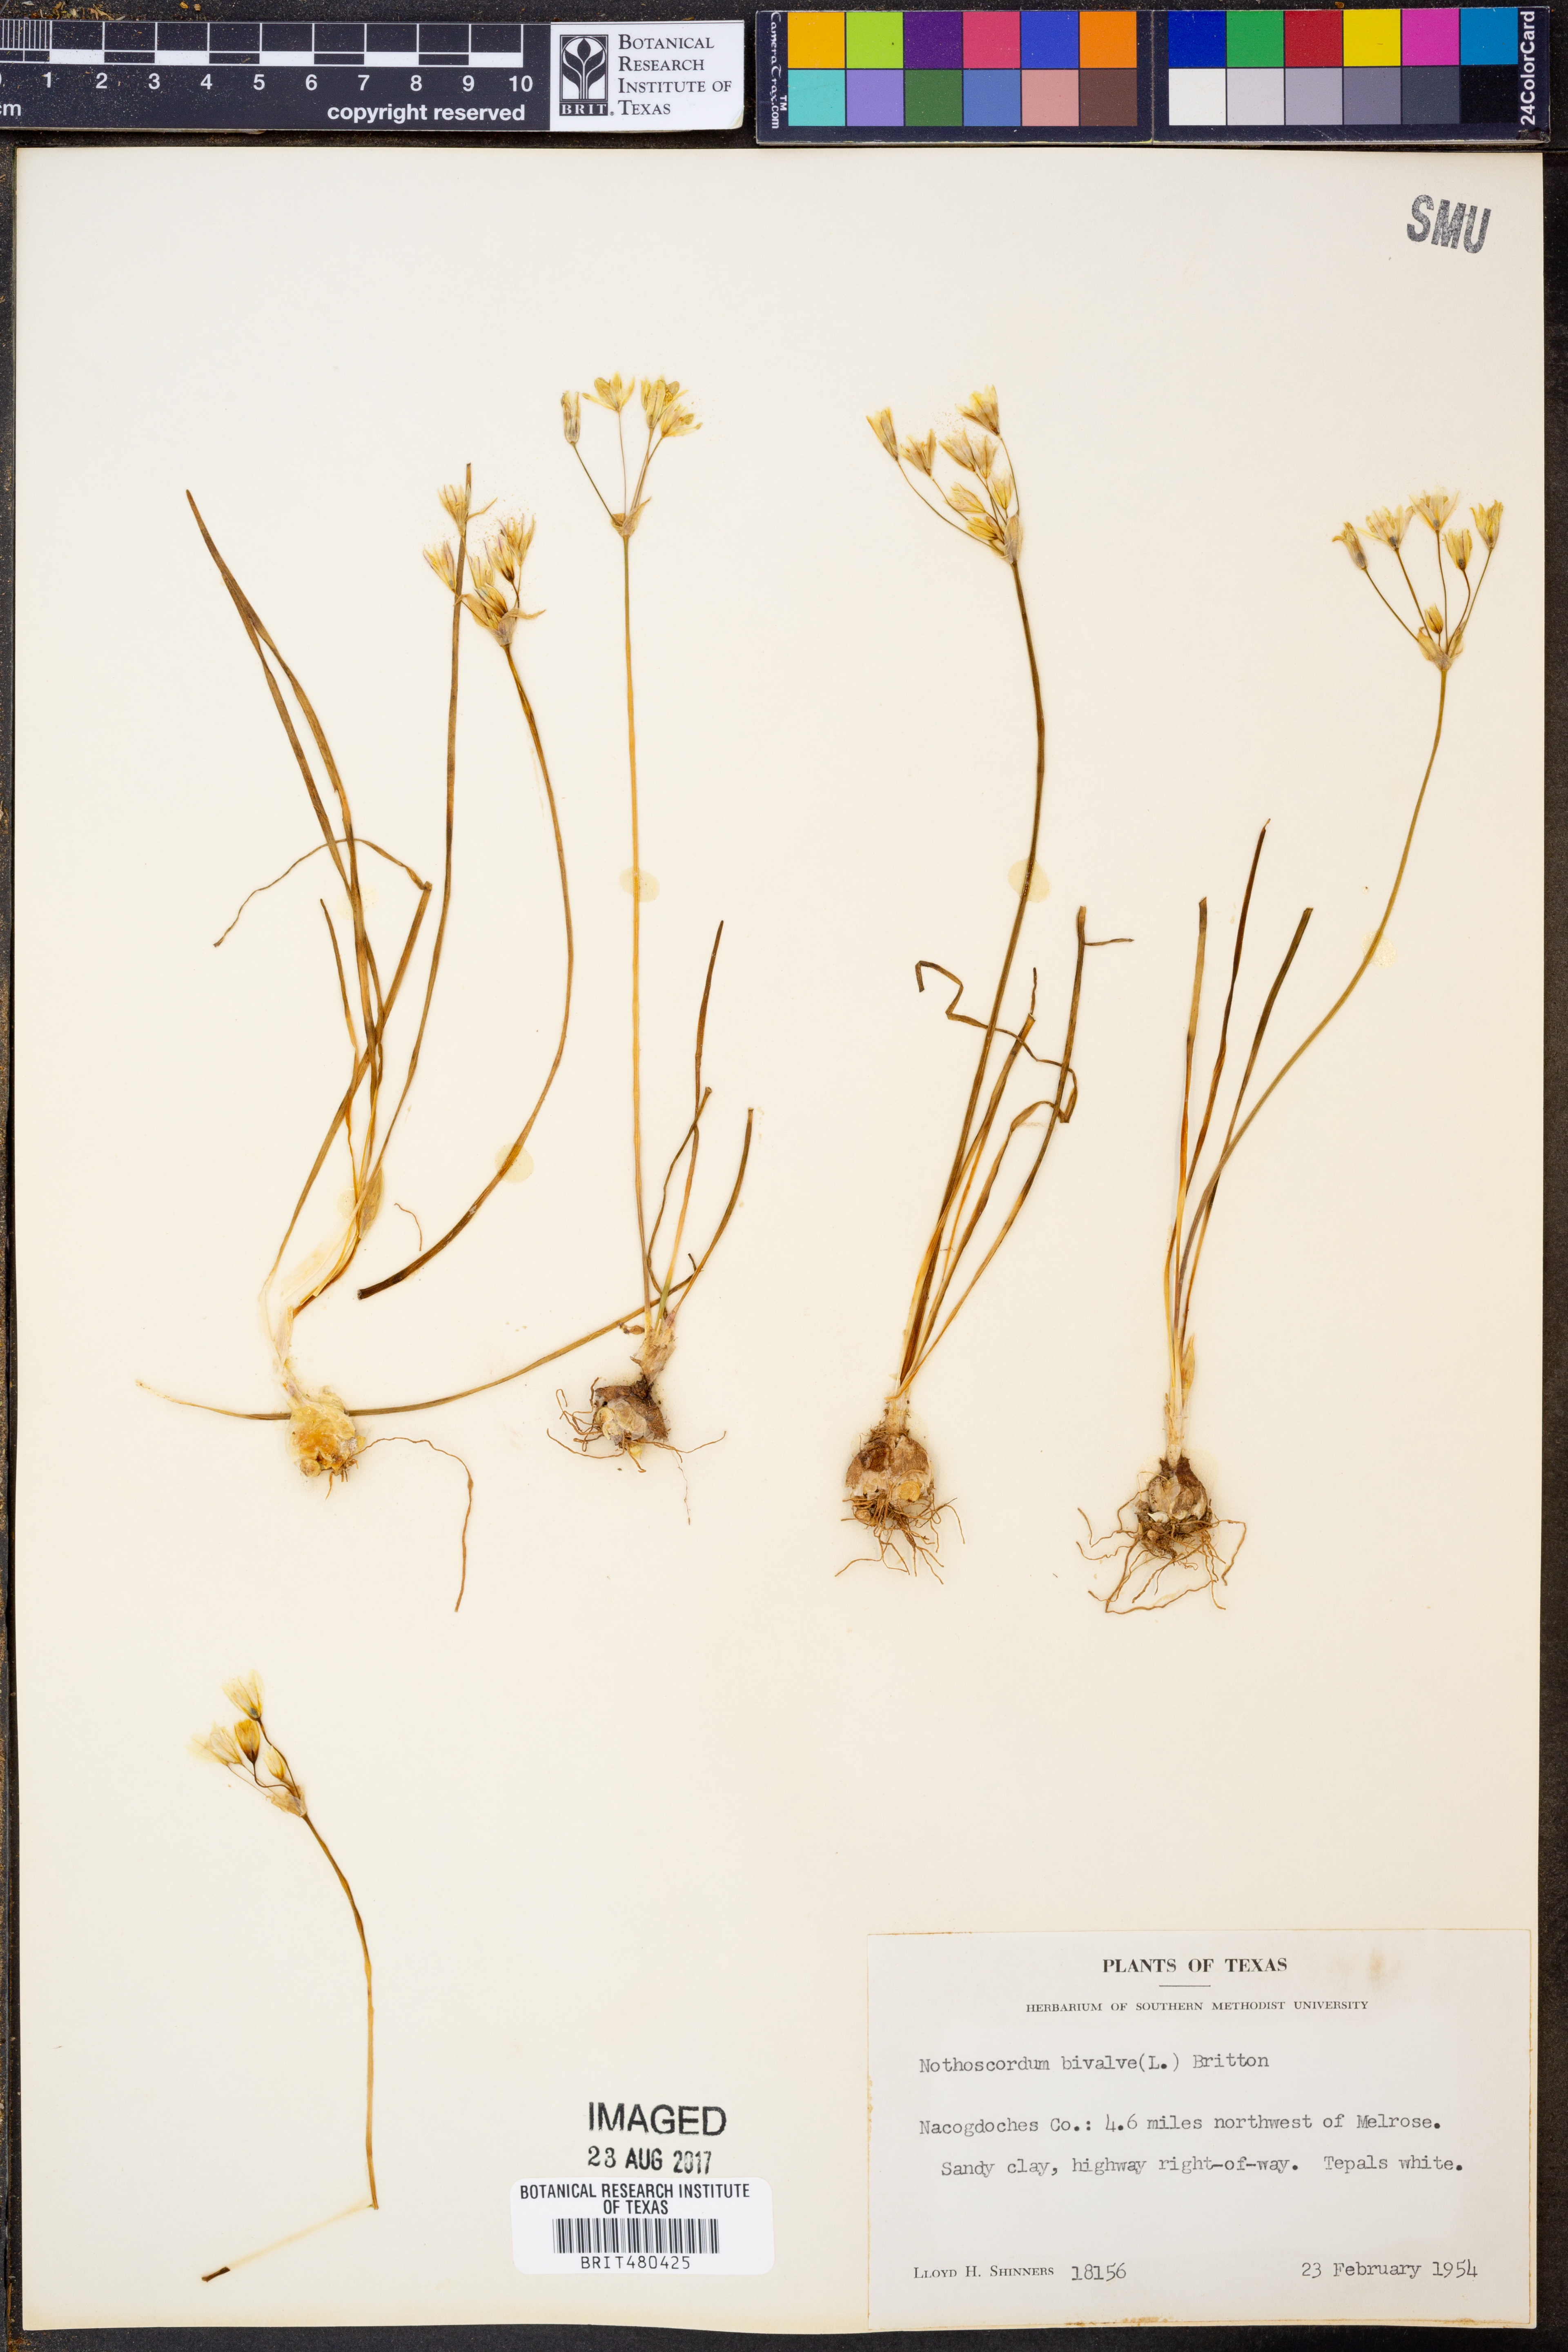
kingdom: Plantae
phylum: Tracheophyta
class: Liliopsida
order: Asparagales
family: Amaryllidaceae
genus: Nothoscordum
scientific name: Nothoscordum bivalve
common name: Crow-poison
